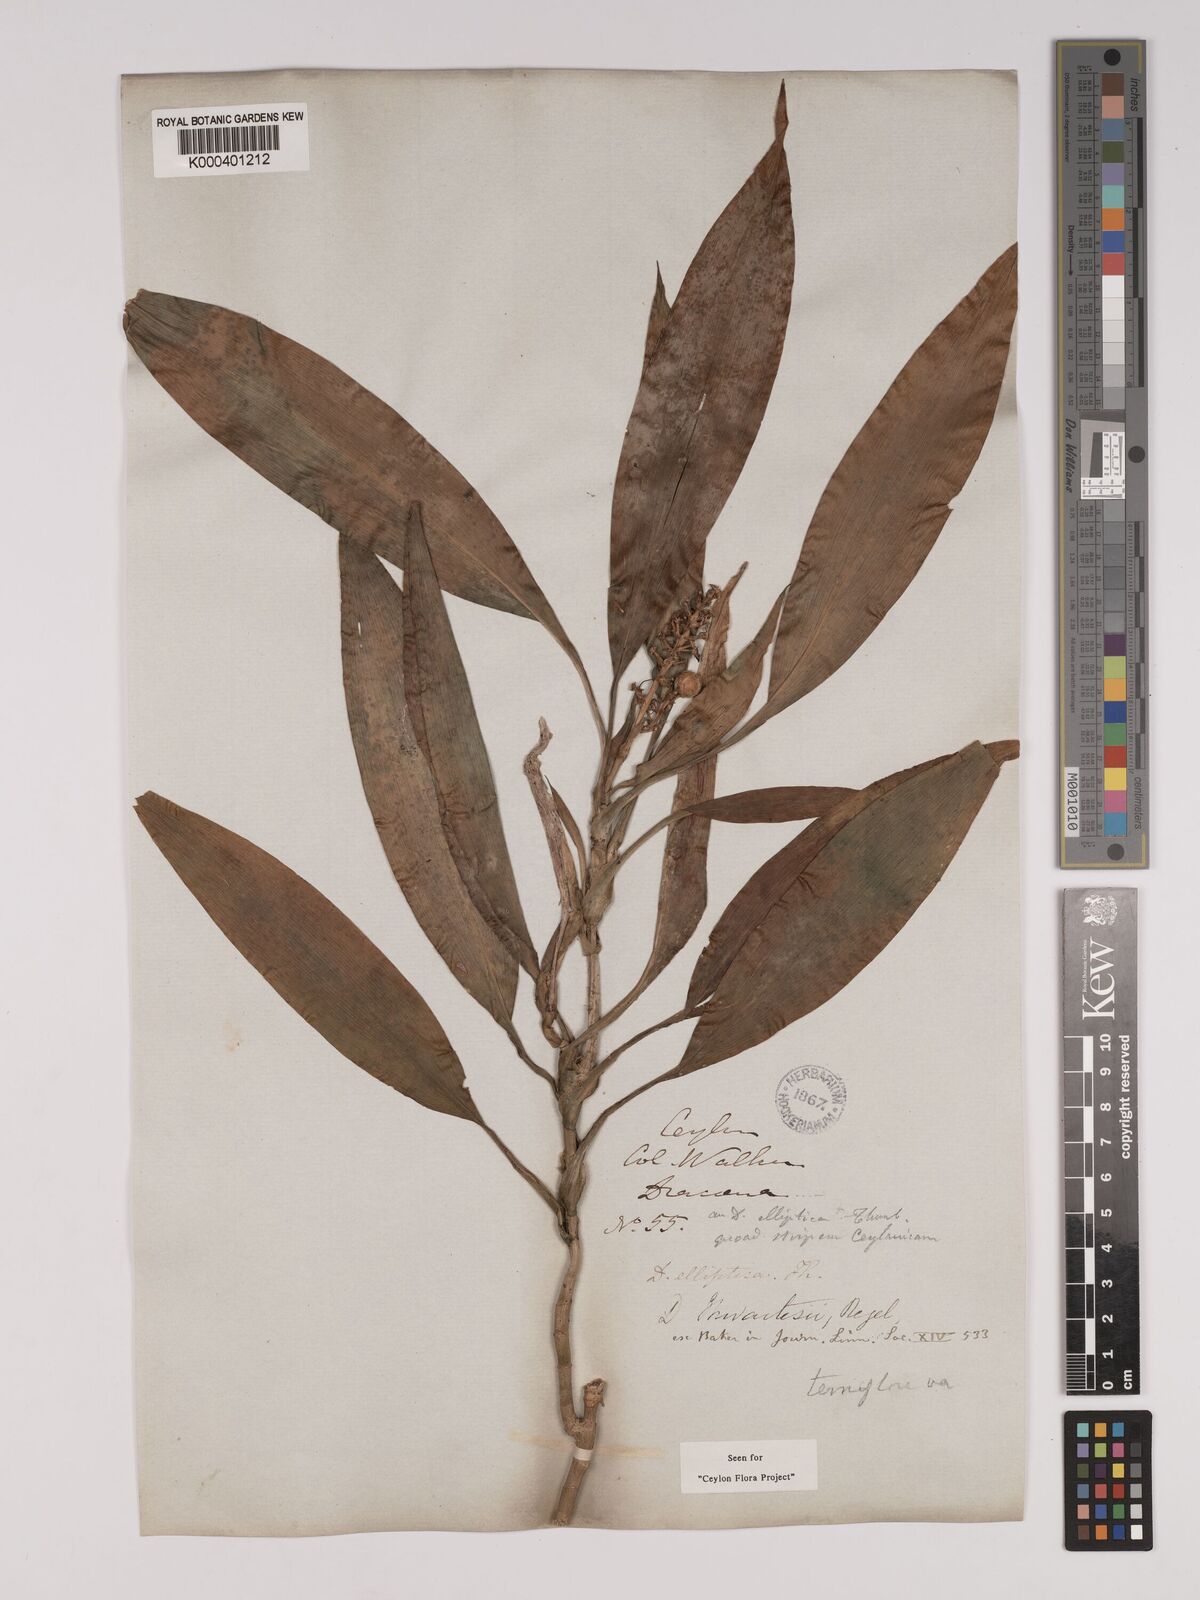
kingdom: Plantae
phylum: Tracheophyta
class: Liliopsida
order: Asparagales
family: Asparagaceae
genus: Dracaena
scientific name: Dracaena thwaitesii
